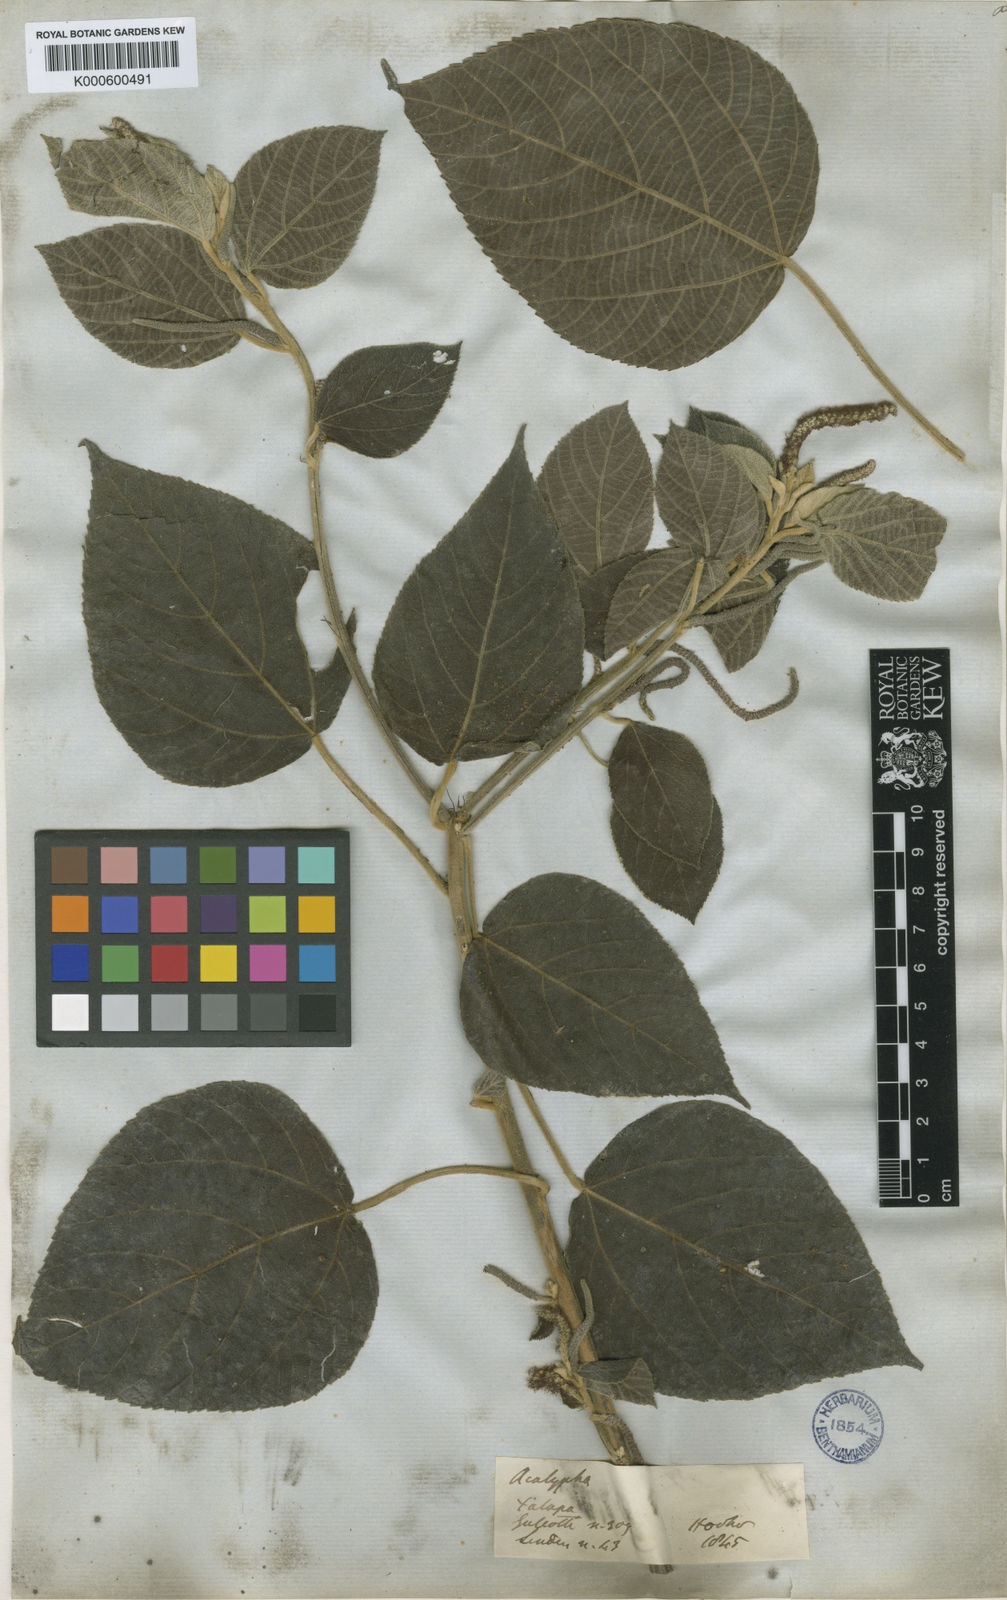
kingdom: Plantae
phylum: Tracheophyta
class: Magnoliopsida
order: Malpighiales
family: Euphorbiaceae
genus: Acalypha
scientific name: Acalypha
